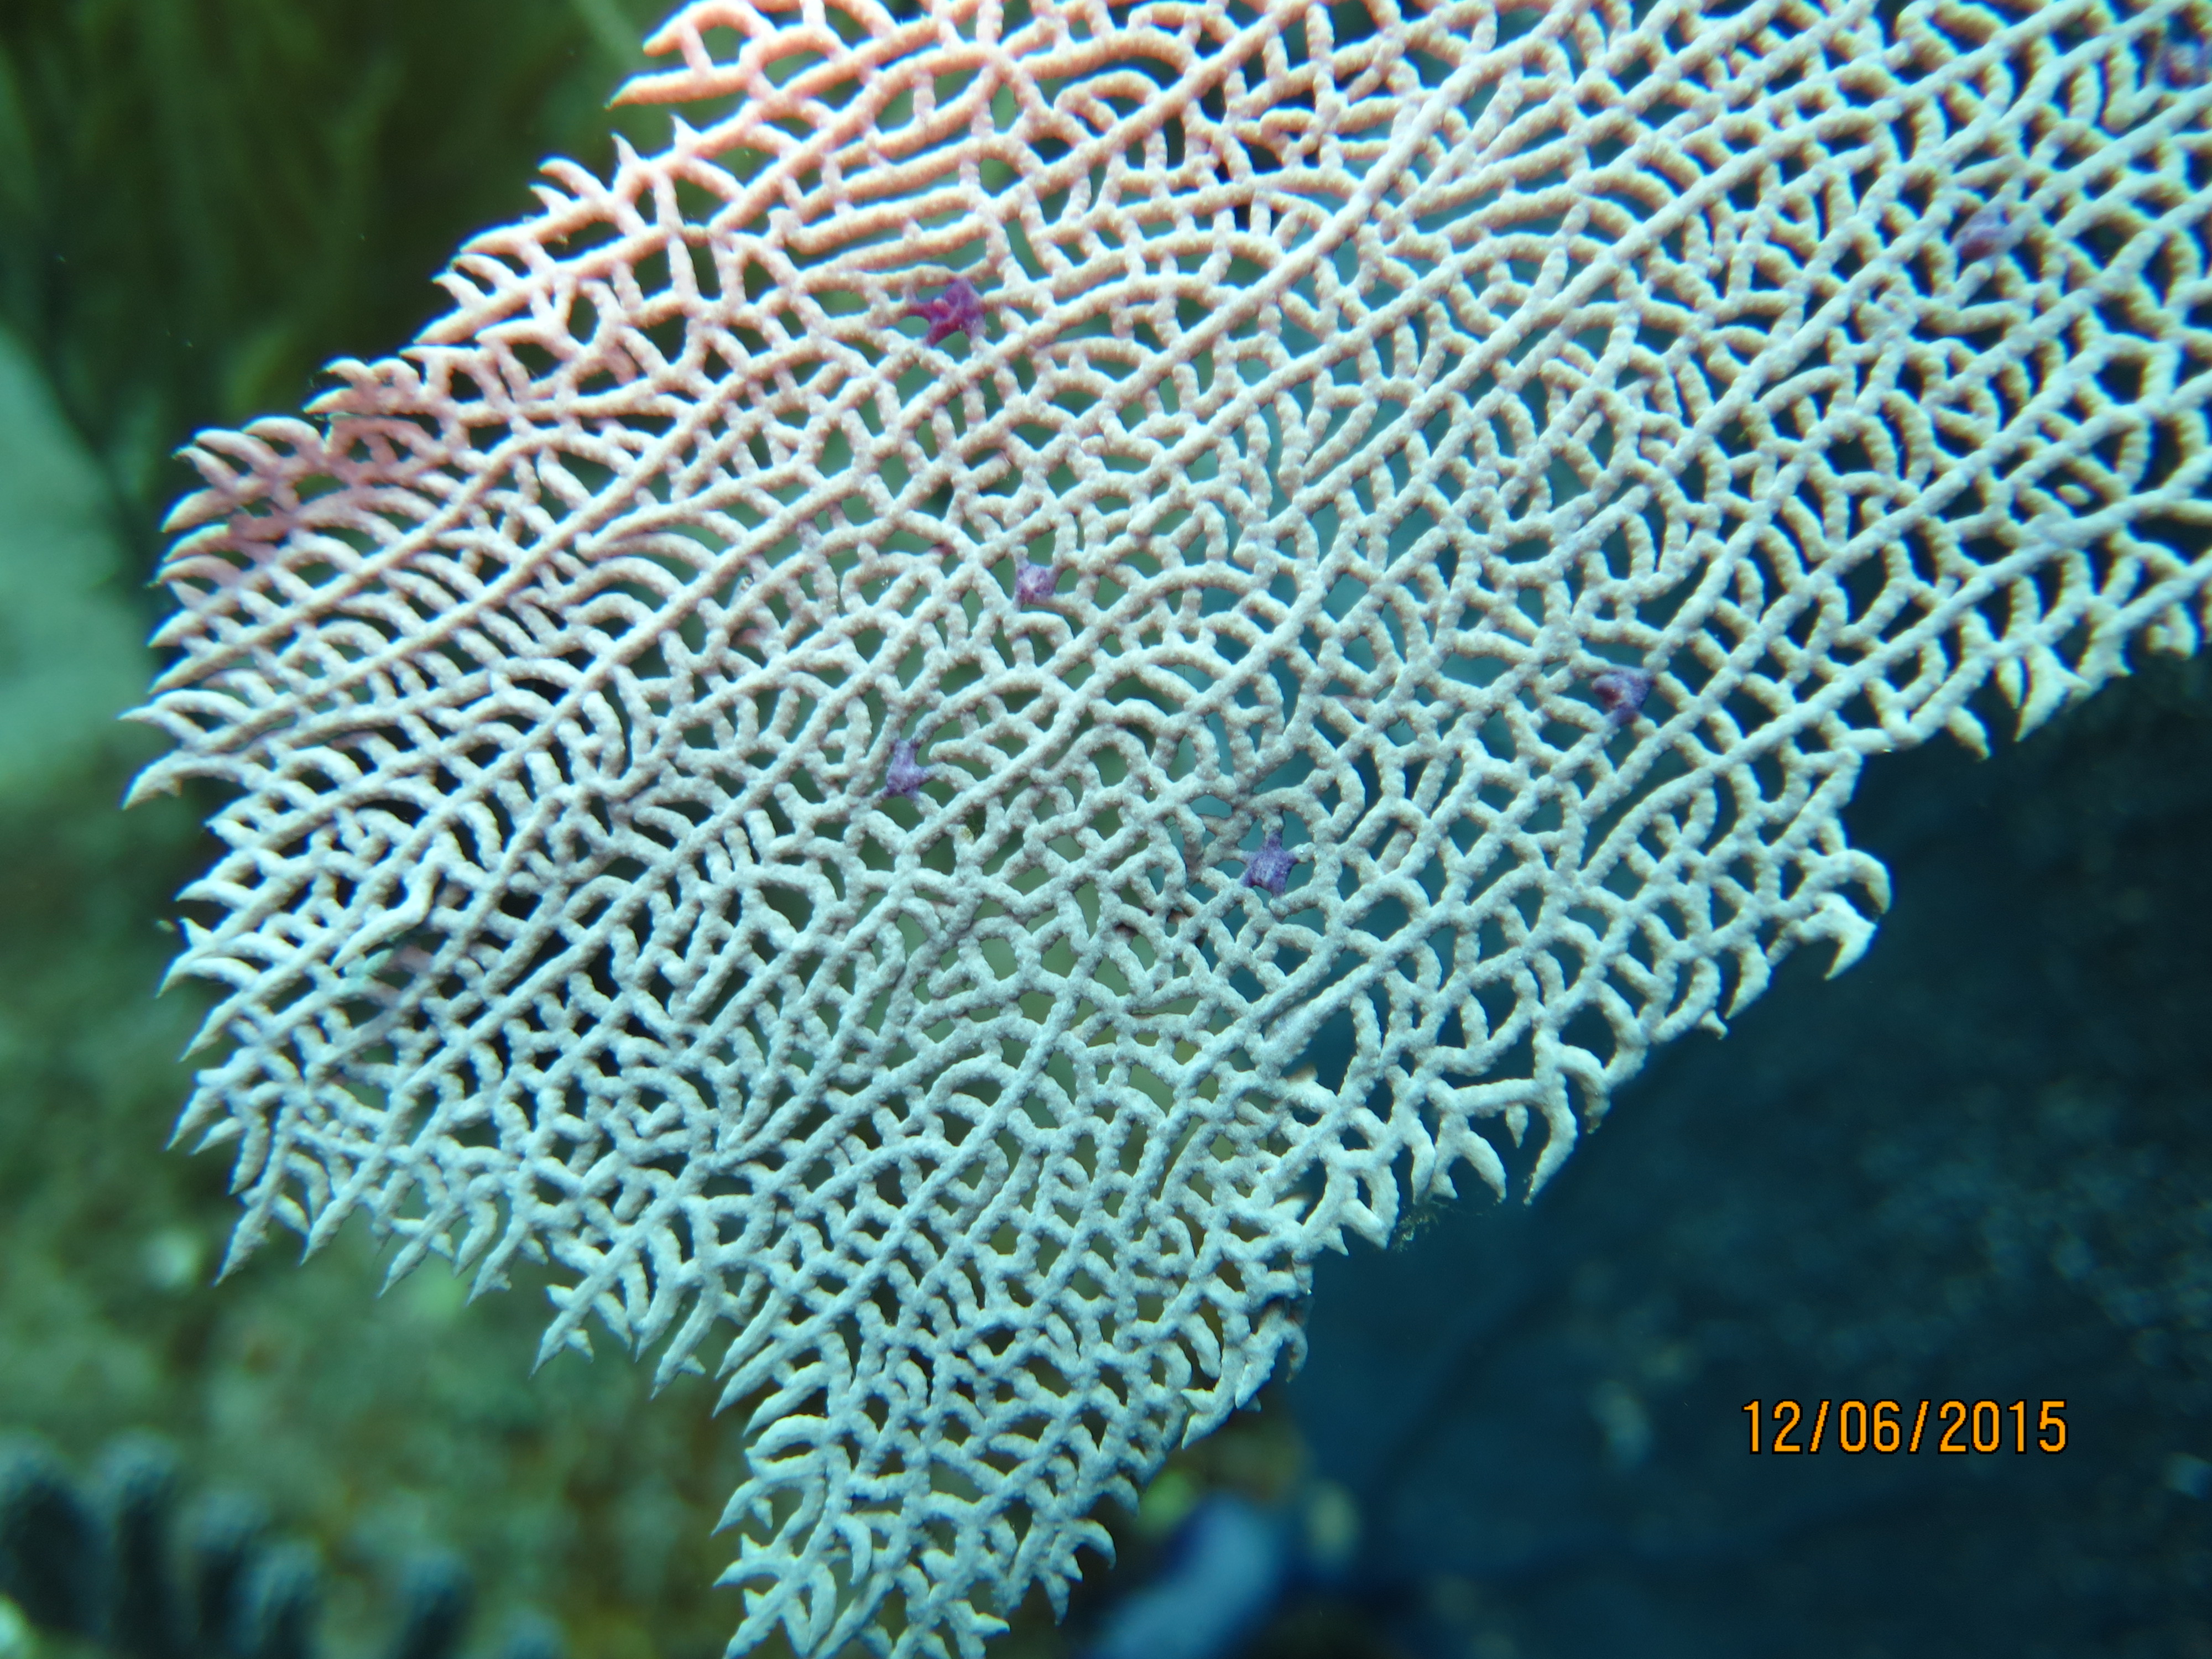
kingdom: Animalia
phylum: Cnidaria
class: Anthozoa
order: Malacalcyonacea
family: Gorgoniidae
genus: Gorgonia
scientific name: Gorgonia ventalina
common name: Common sea fan
